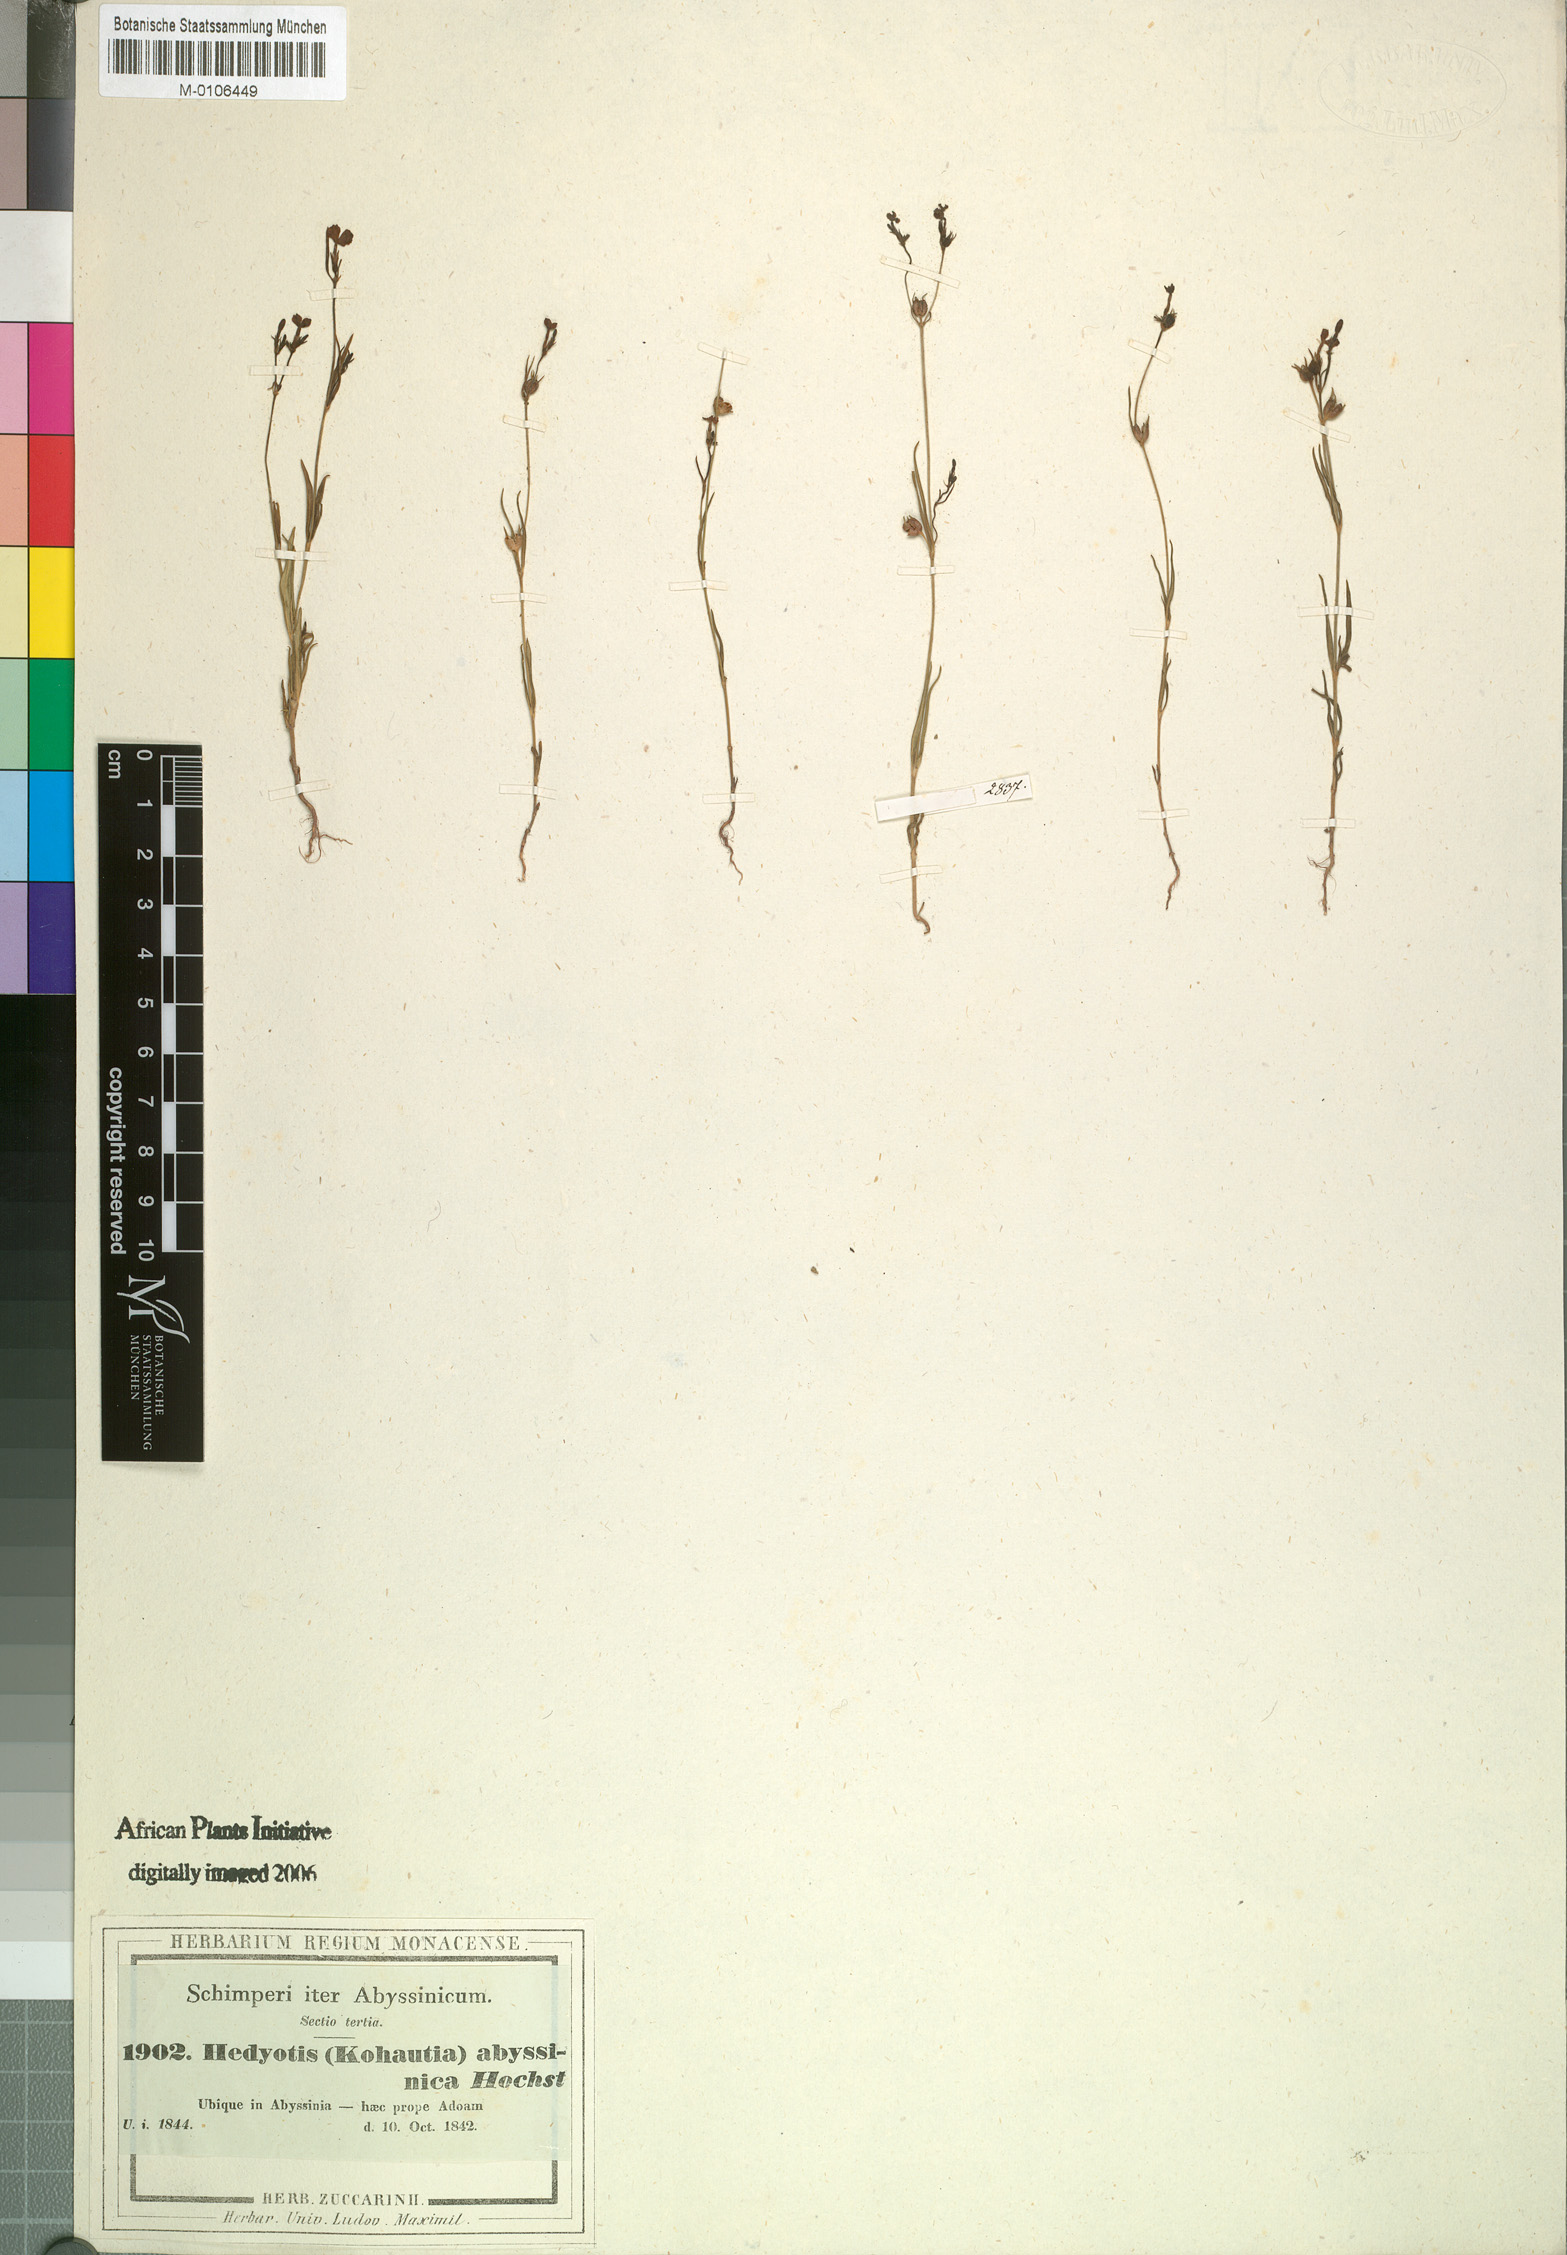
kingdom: Plantae
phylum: Tracheophyta
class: Magnoliopsida
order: Gentianales
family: Rubiaceae
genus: Kohautia
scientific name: Kohautia coccinea
